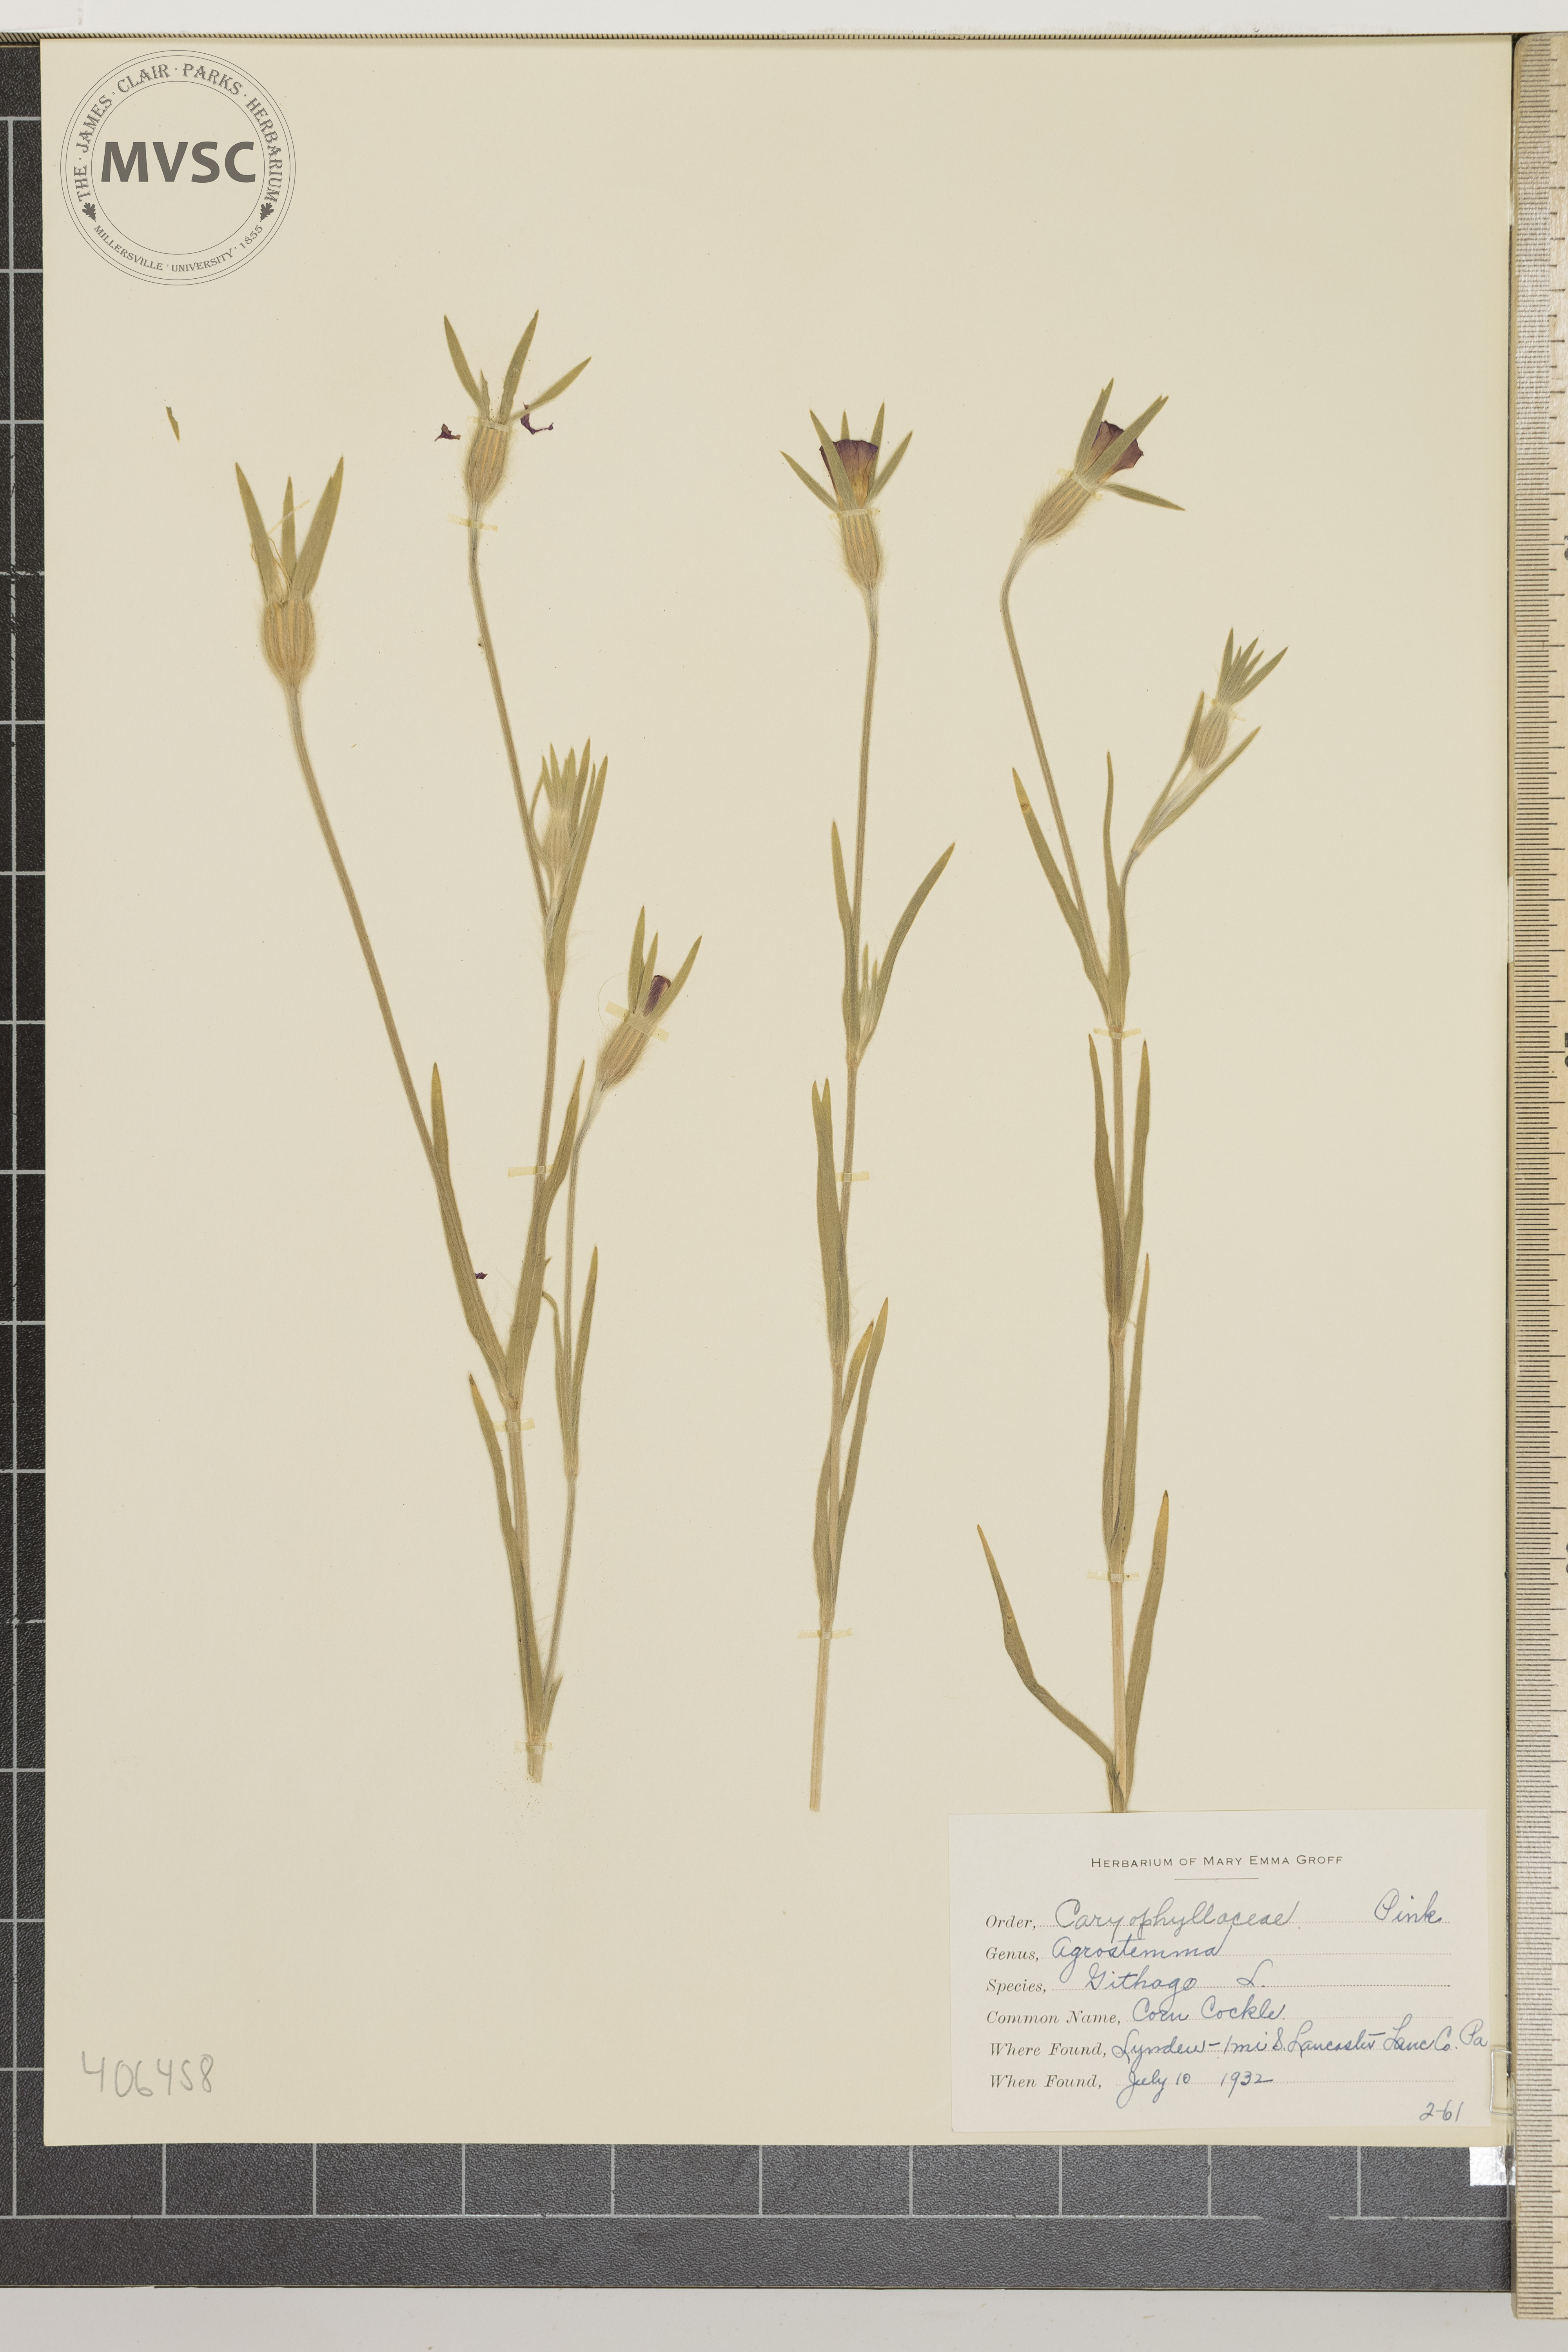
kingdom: Plantae
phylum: Tracheophyta
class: Magnoliopsida
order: Caryophyllales
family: Caryophyllaceae
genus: Agrostemma
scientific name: Agrostemma githago
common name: Corn cockle
